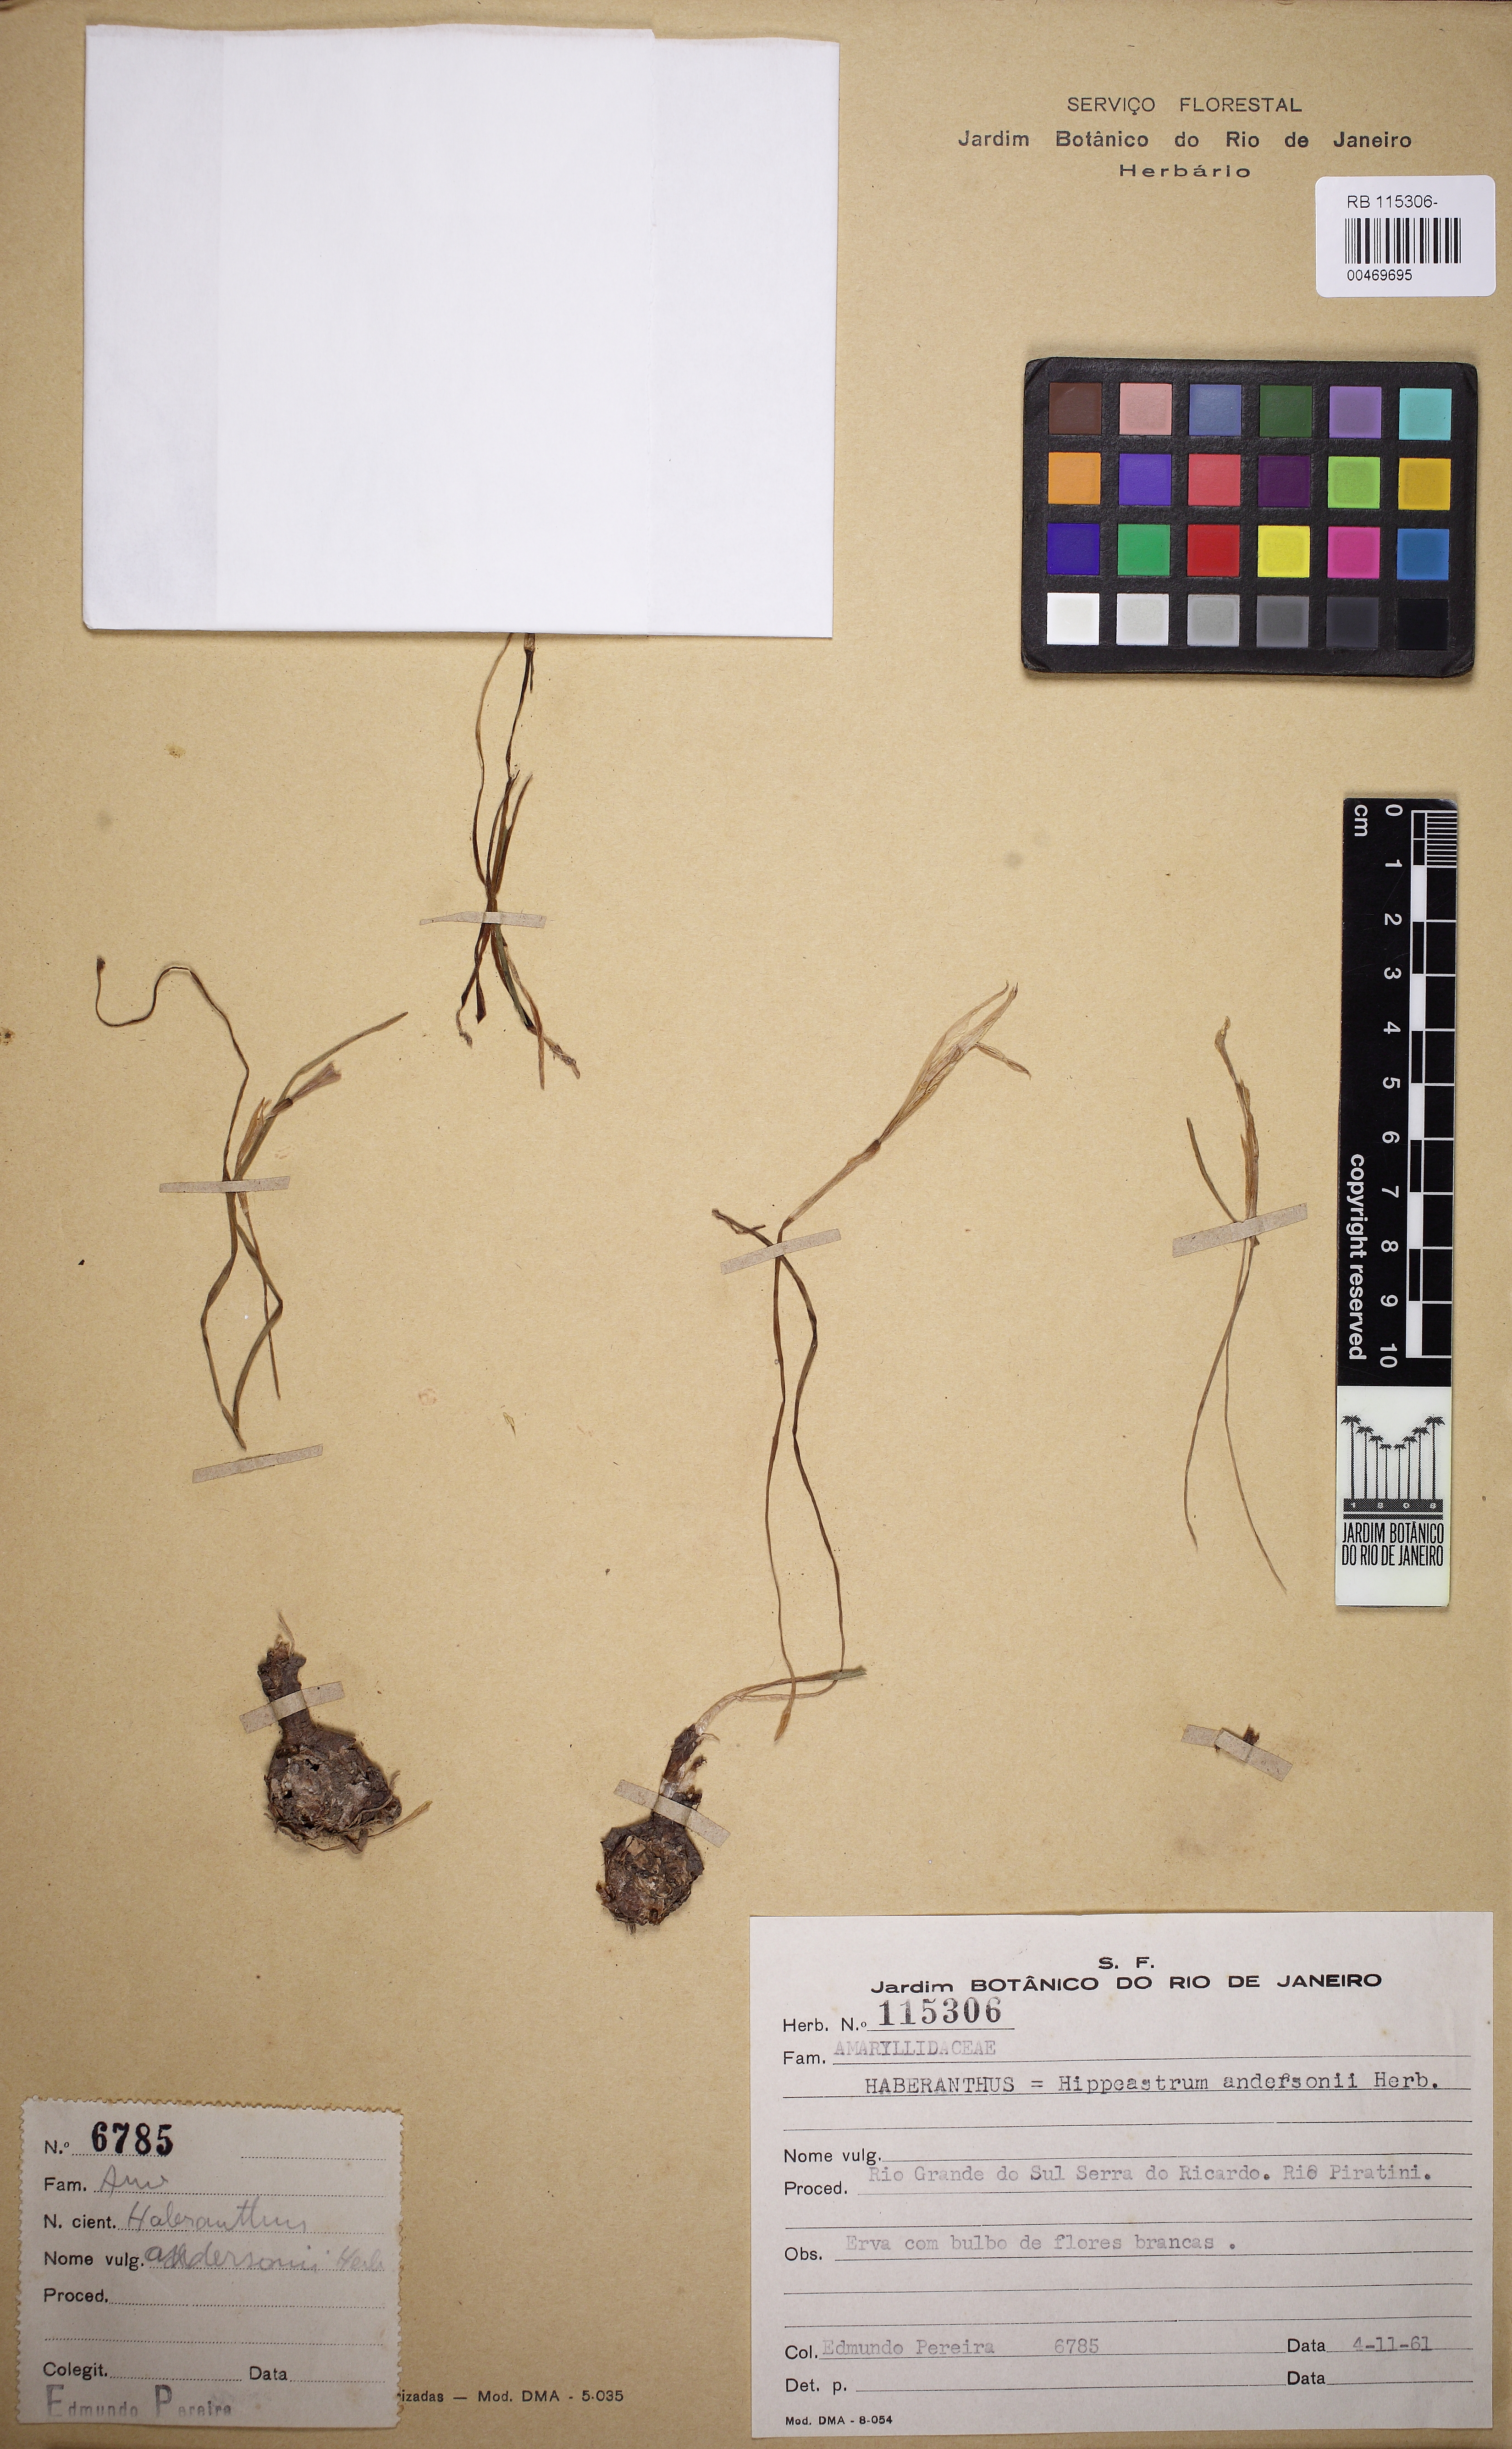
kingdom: Plantae
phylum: Tracheophyta
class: Liliopsida
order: Asparagales
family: Amaryllidaceae
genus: Zephyranthes
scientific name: Zephyranthes mesochloa
